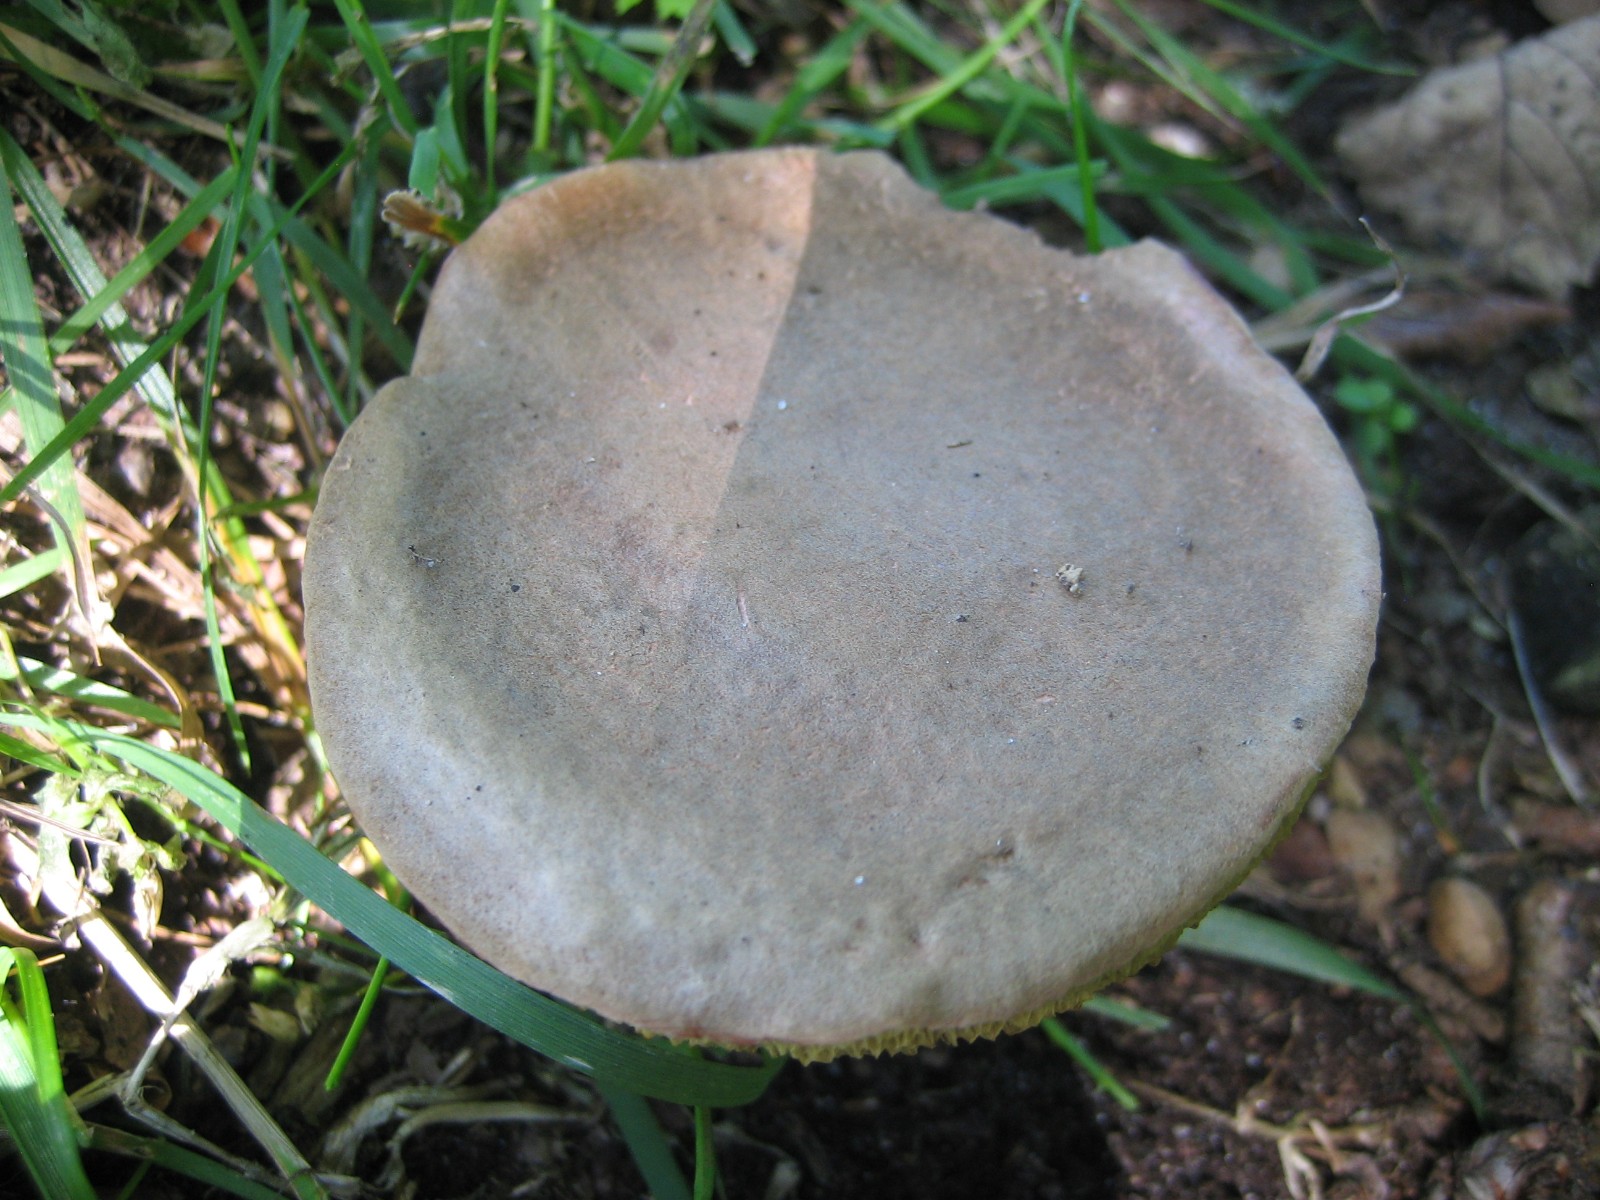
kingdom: Fungi
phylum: Basidiomycota
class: Agaricomycetes
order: Boletales
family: Boletaceae
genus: Xerocomellus
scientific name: Xerocomellus cisalpinus
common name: finsprukken rørhat
